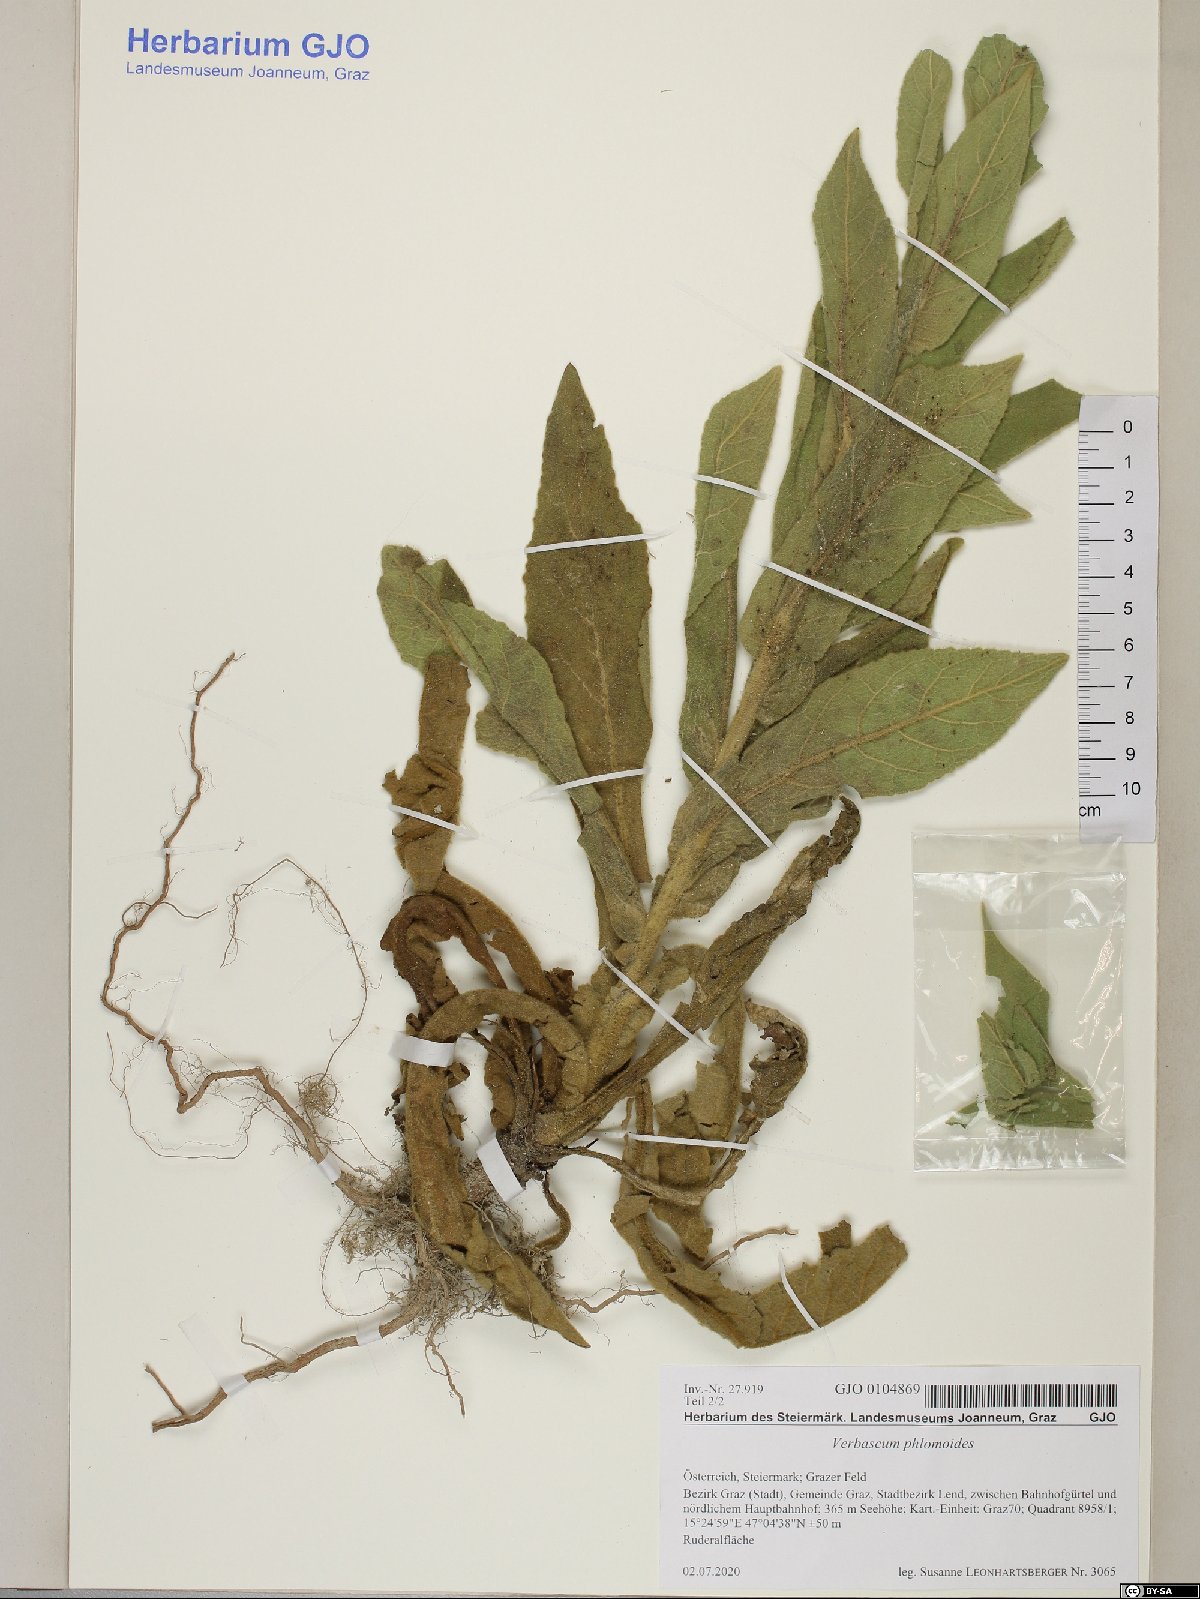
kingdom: Plantae
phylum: Tracheophyta
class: Magnoliopsida
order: Lamiales
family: Scrophulariaceae
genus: Verbascum
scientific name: Verbascum phlomoides
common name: Orange mullein
